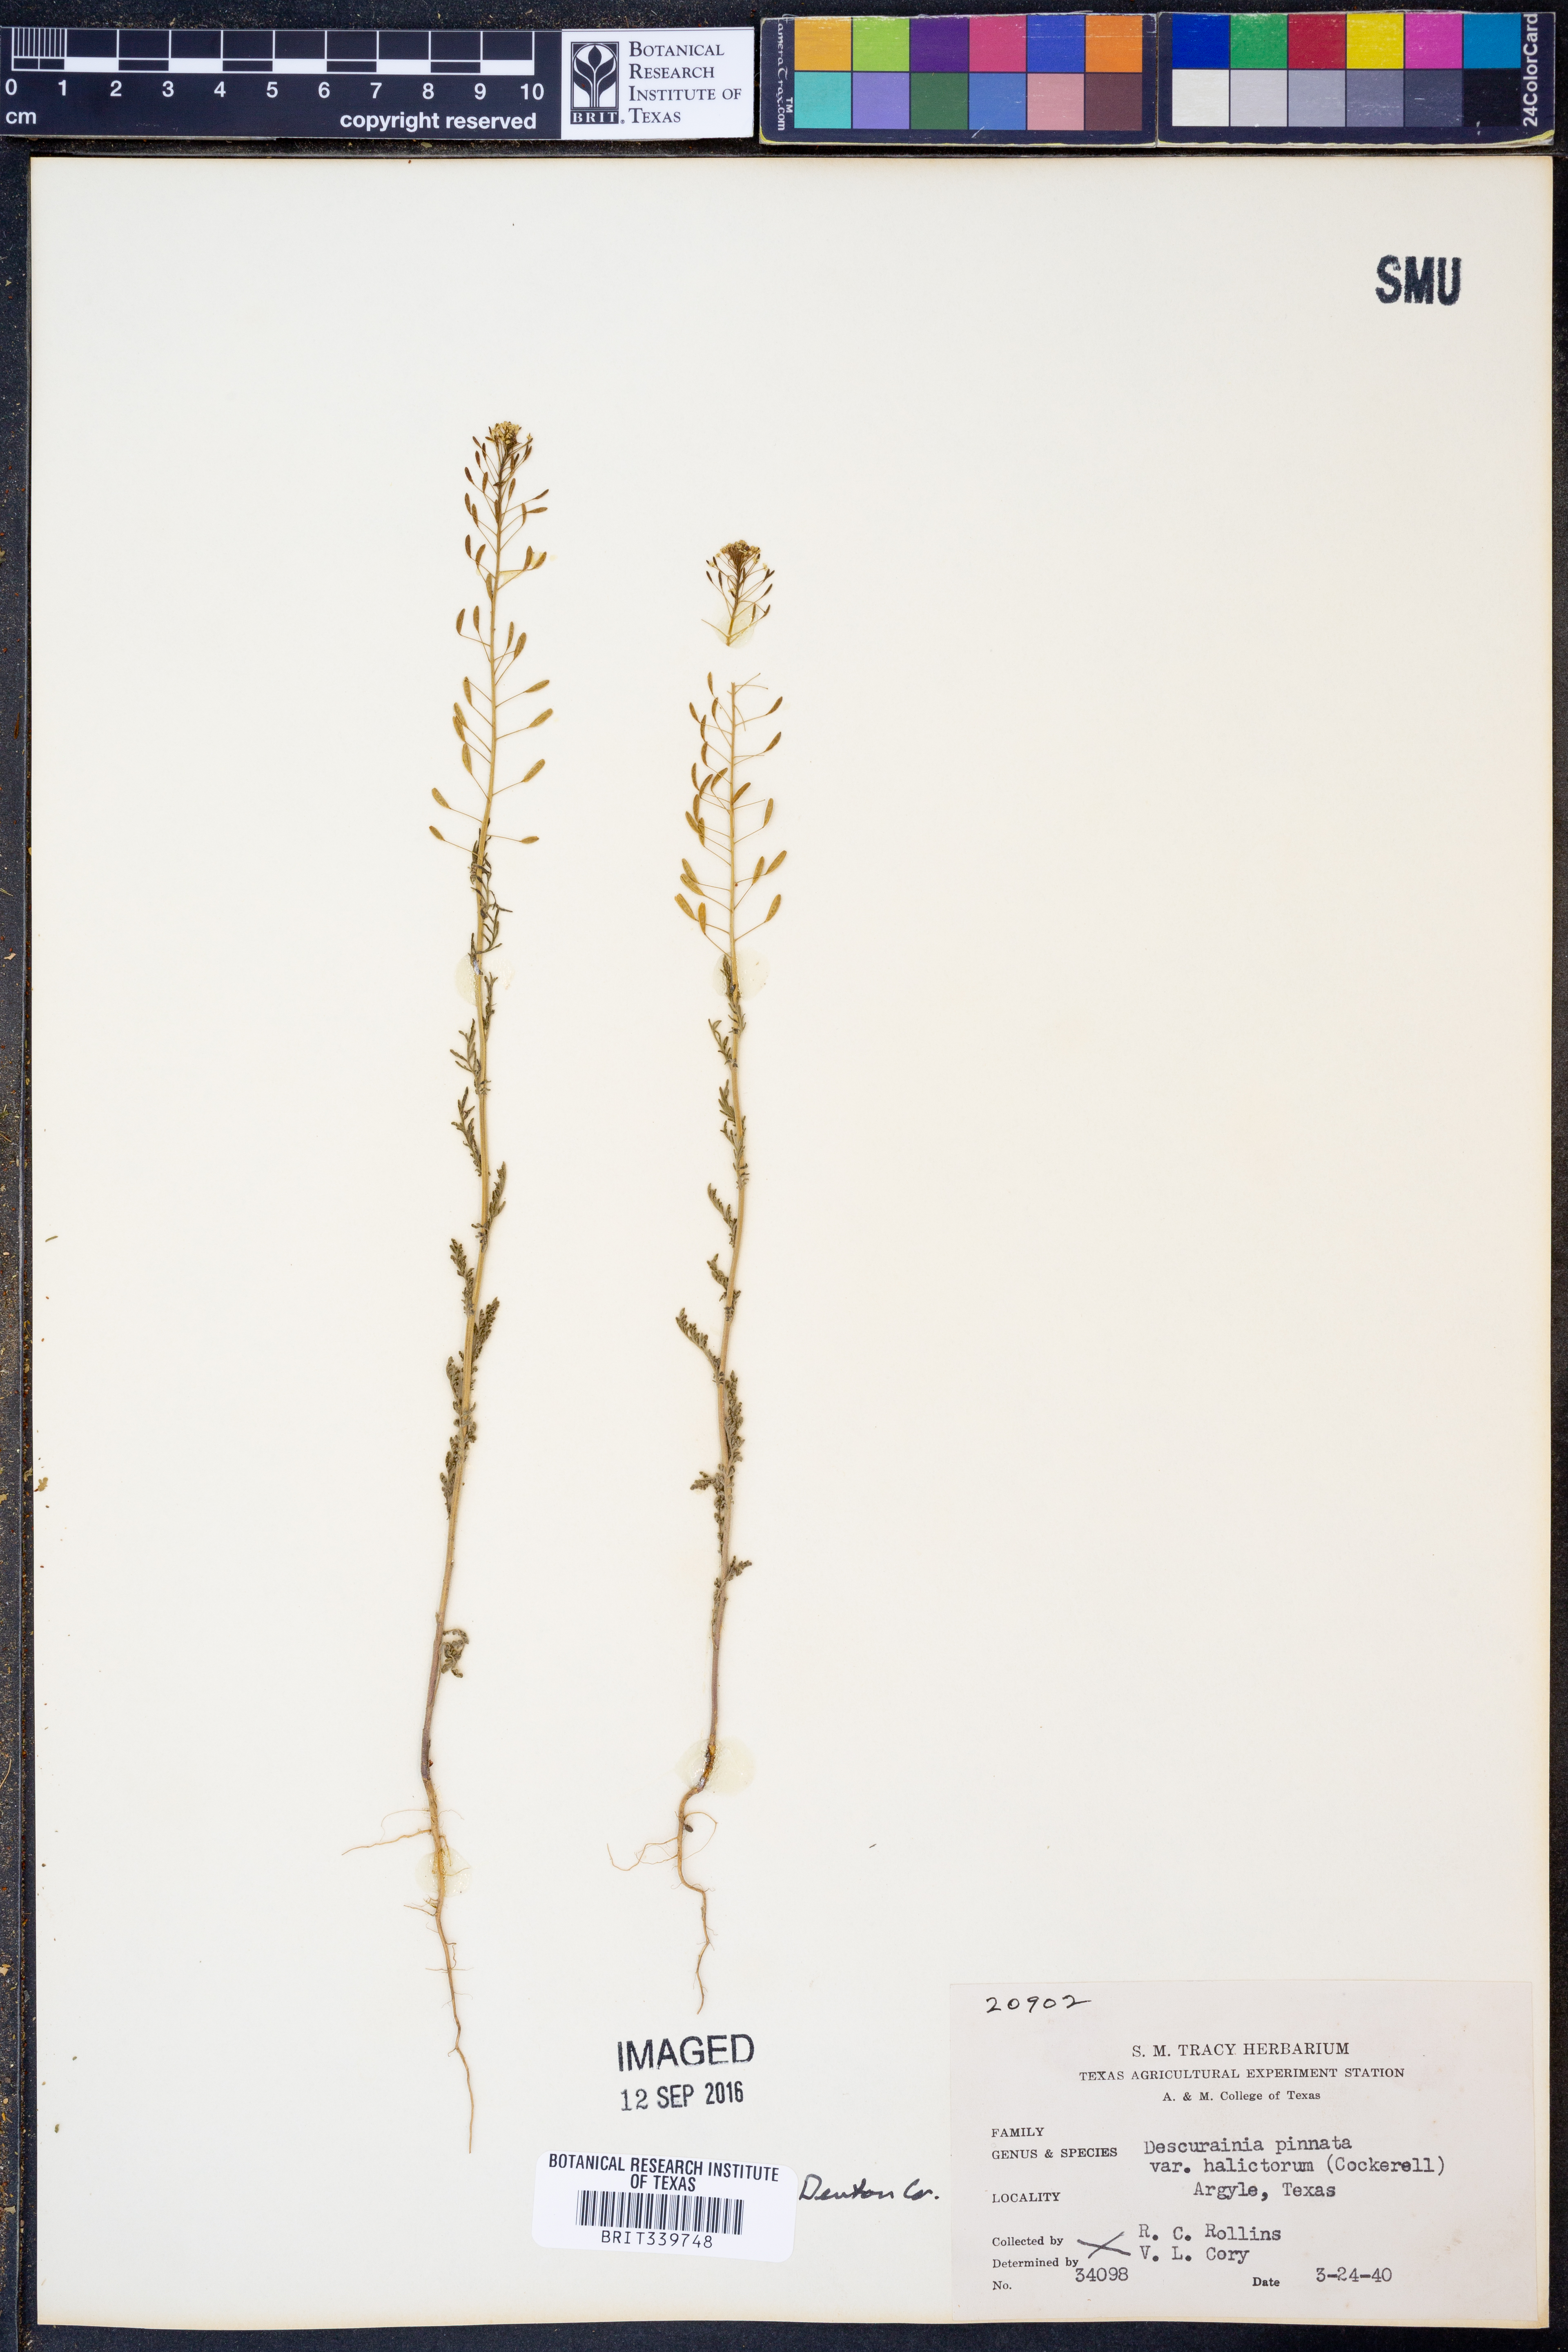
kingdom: Plantae
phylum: Tracheophyta
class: Magnoliopsida
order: Brassicales
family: Brassicaceae
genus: Descurainia
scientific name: Descurainia pinnata
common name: Western tansy mustard
